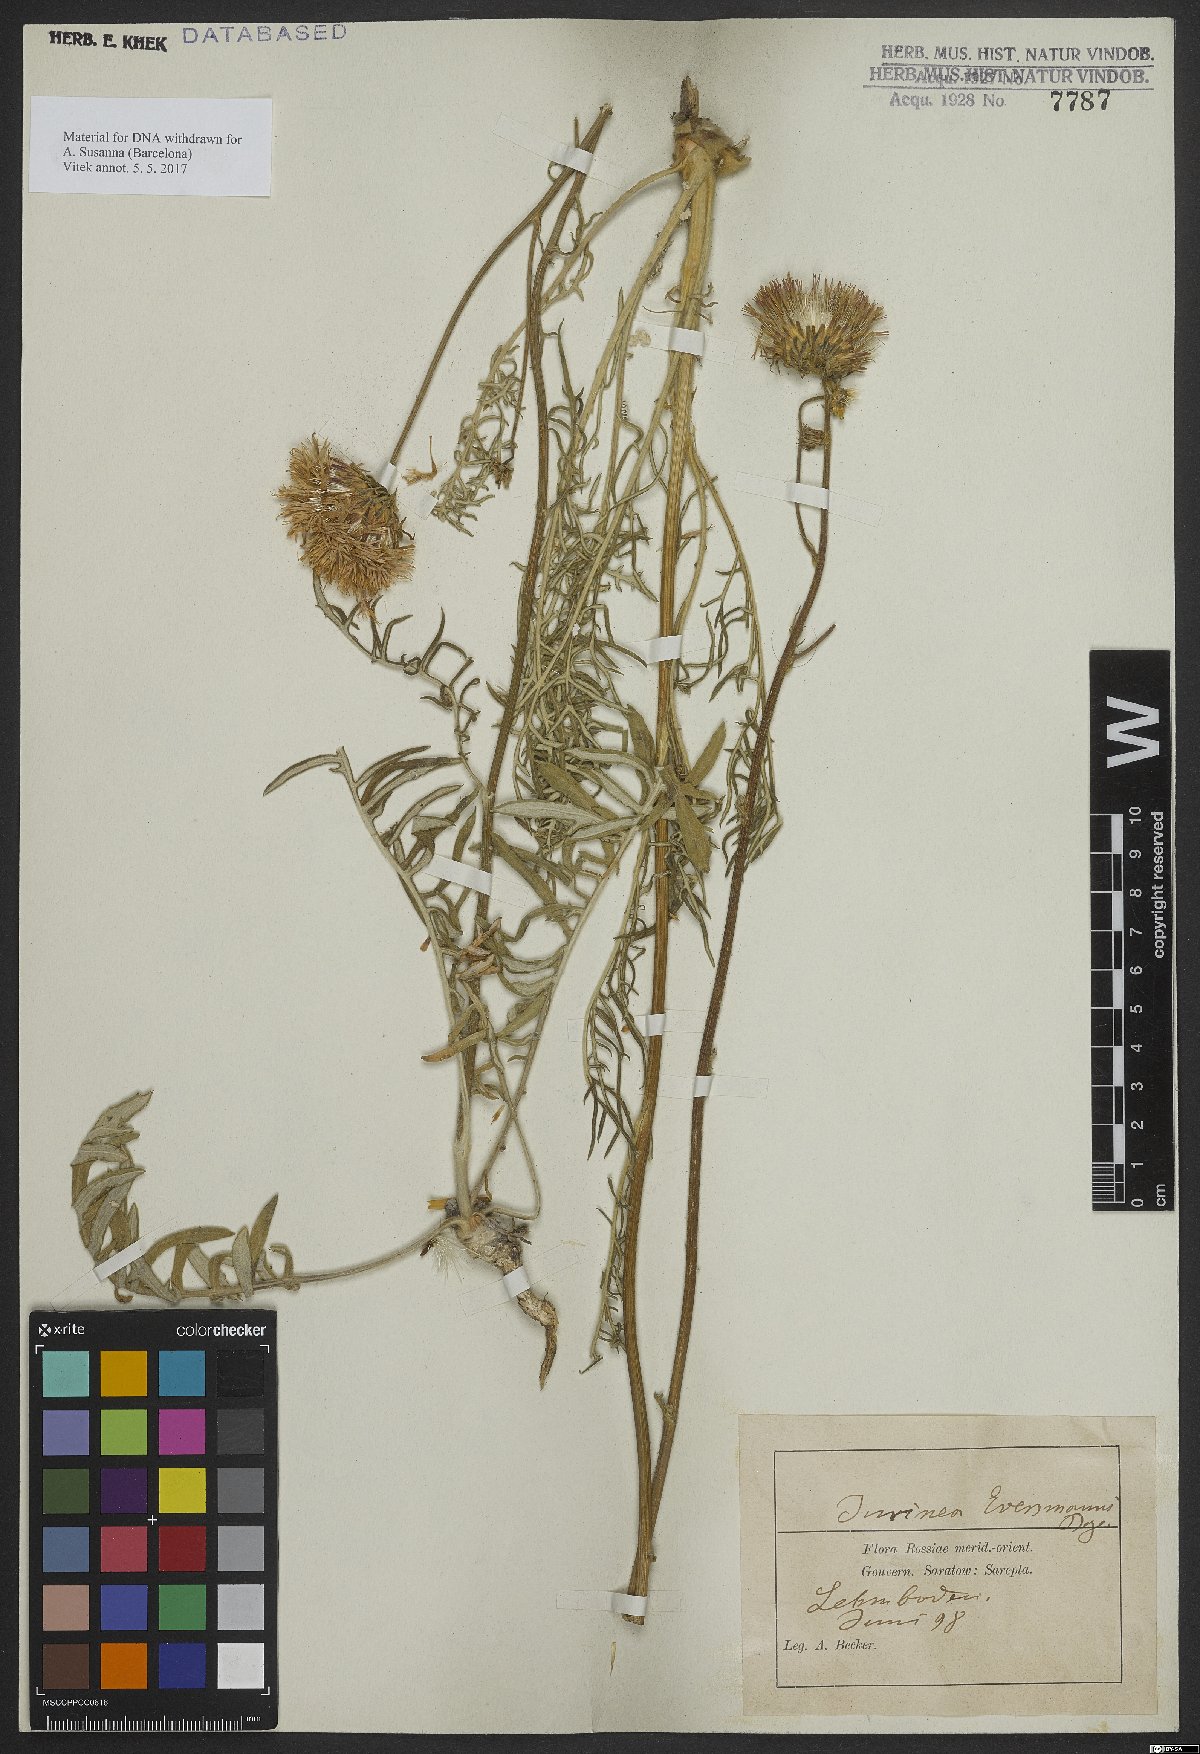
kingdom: Plantae
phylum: Tracheophyta
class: Magnoliopsida
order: Asterales
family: Asteraceae
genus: Jurinea
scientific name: Jurinea ewersmanii
